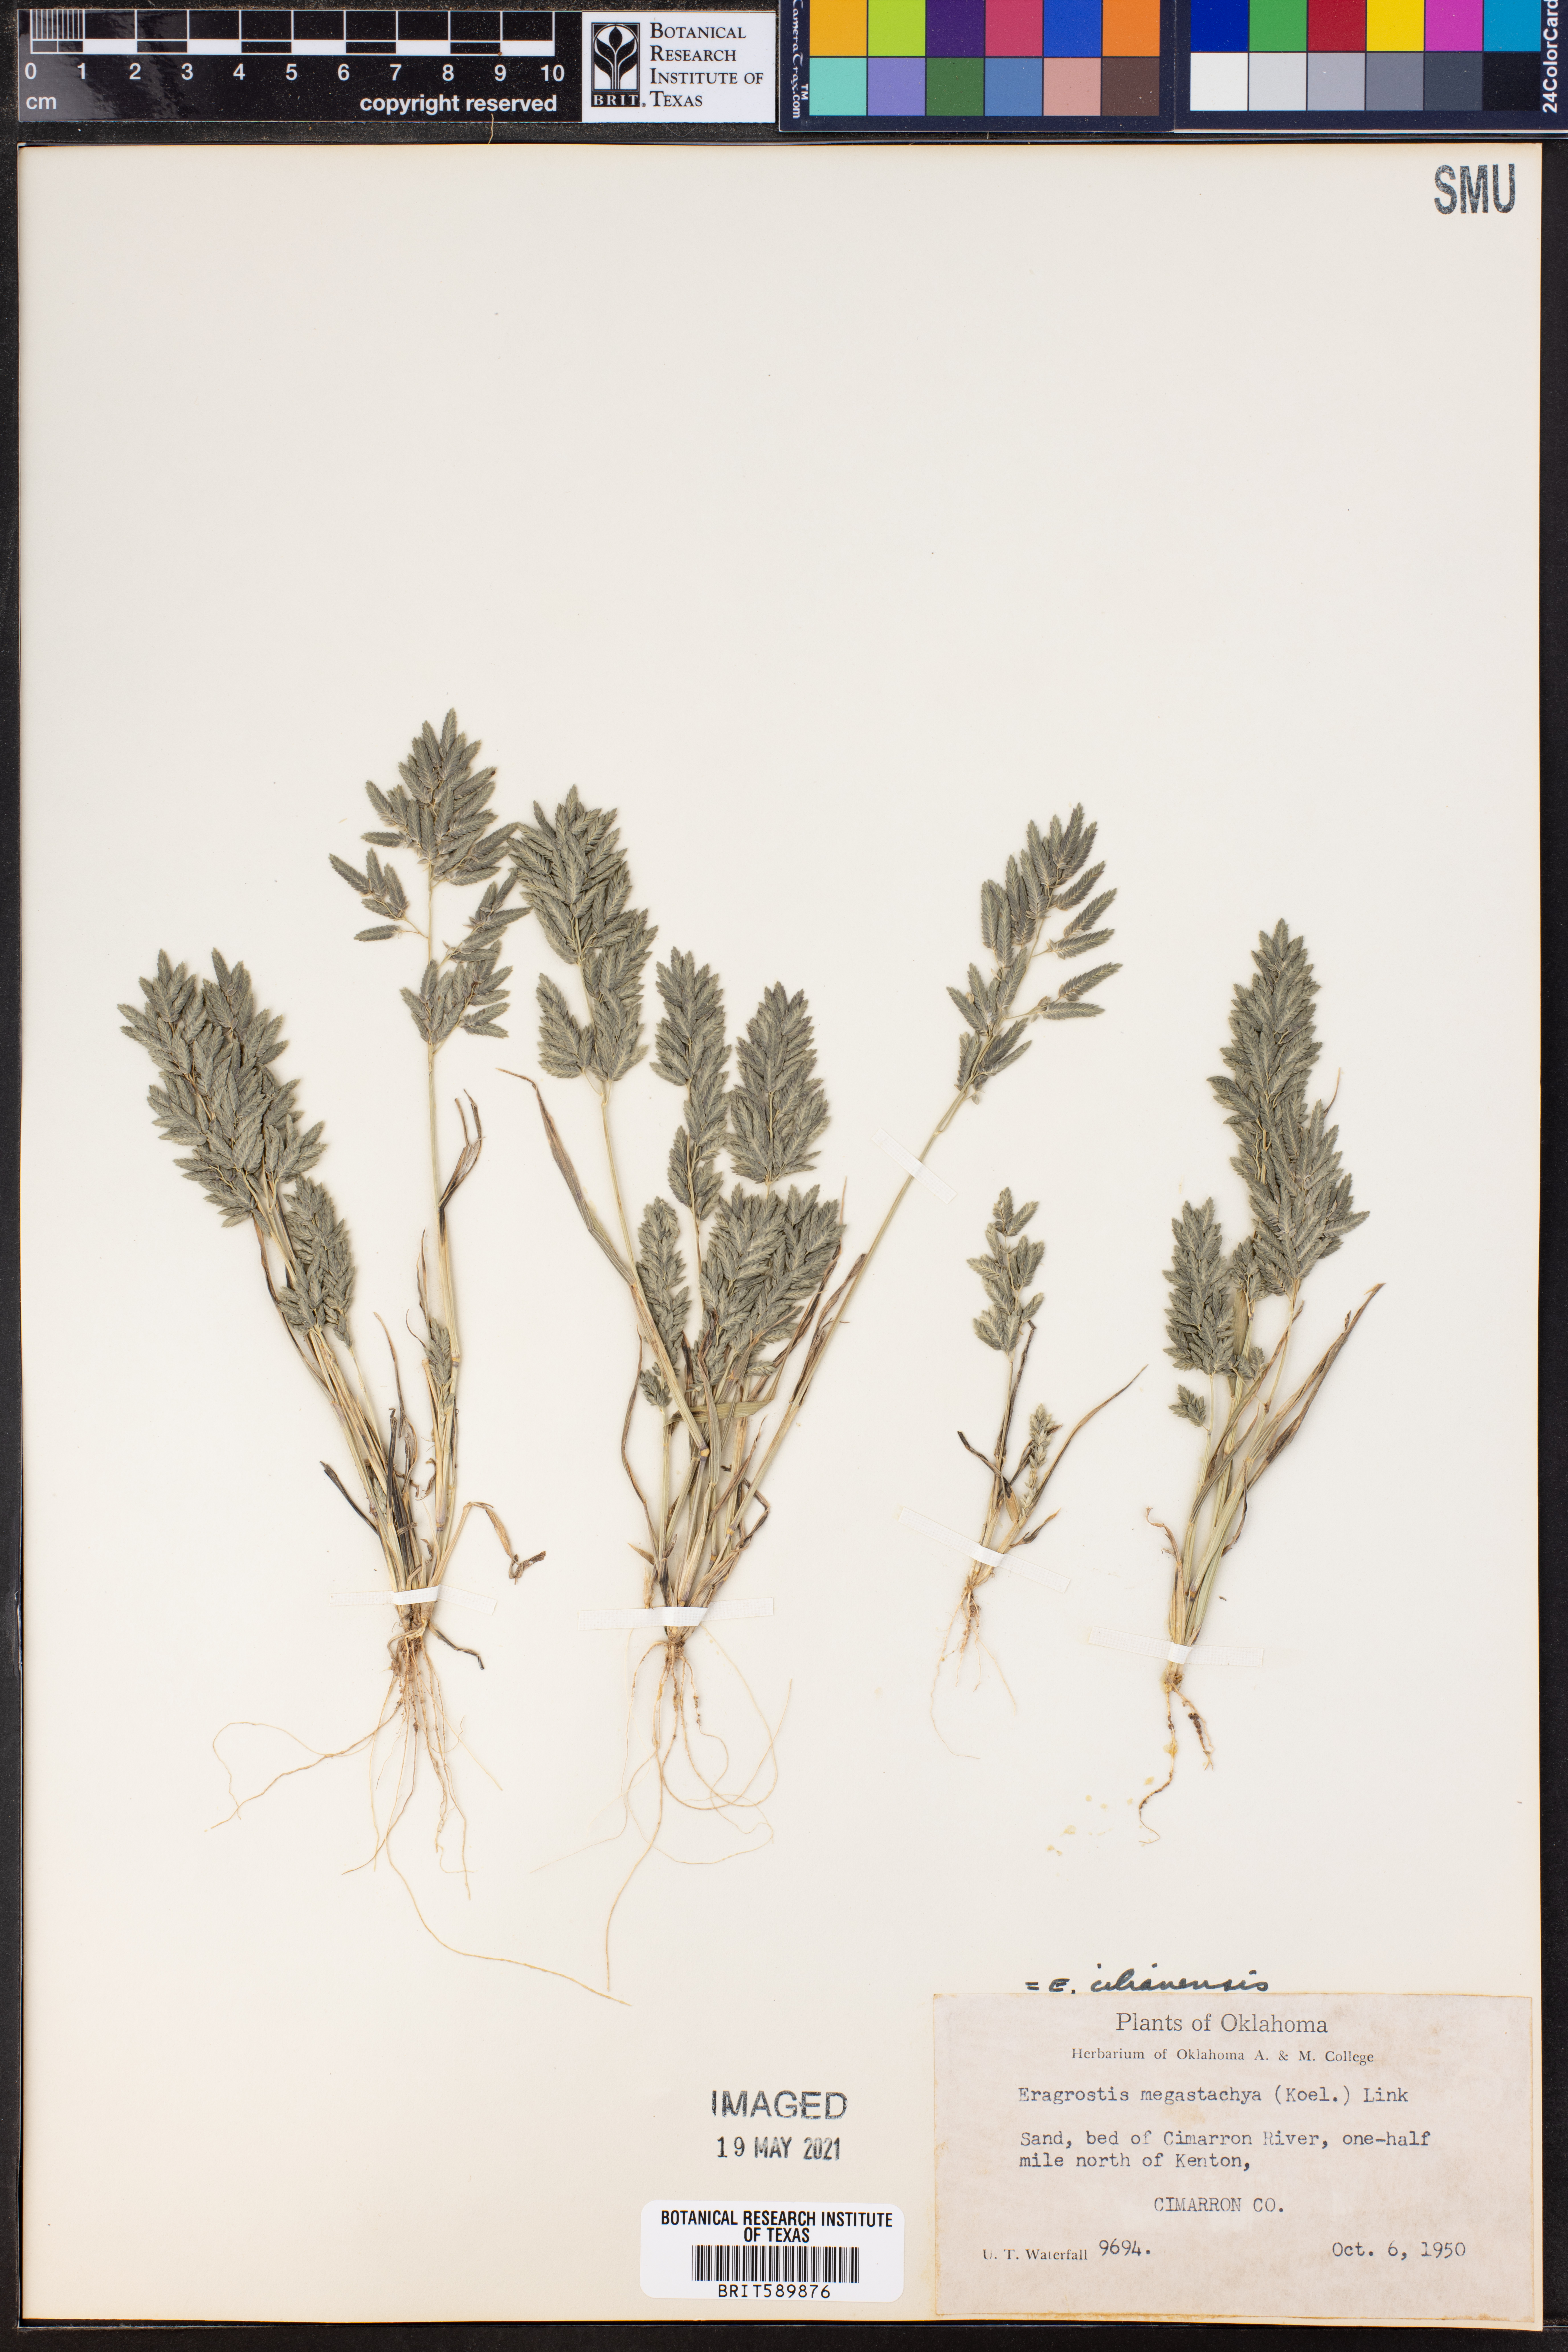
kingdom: Plantae
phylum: Tracheophyta
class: Liliopsida
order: Poales
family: Poaceae
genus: Eragrostis
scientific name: Eragrostis cilianensis
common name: Stinkgrass
